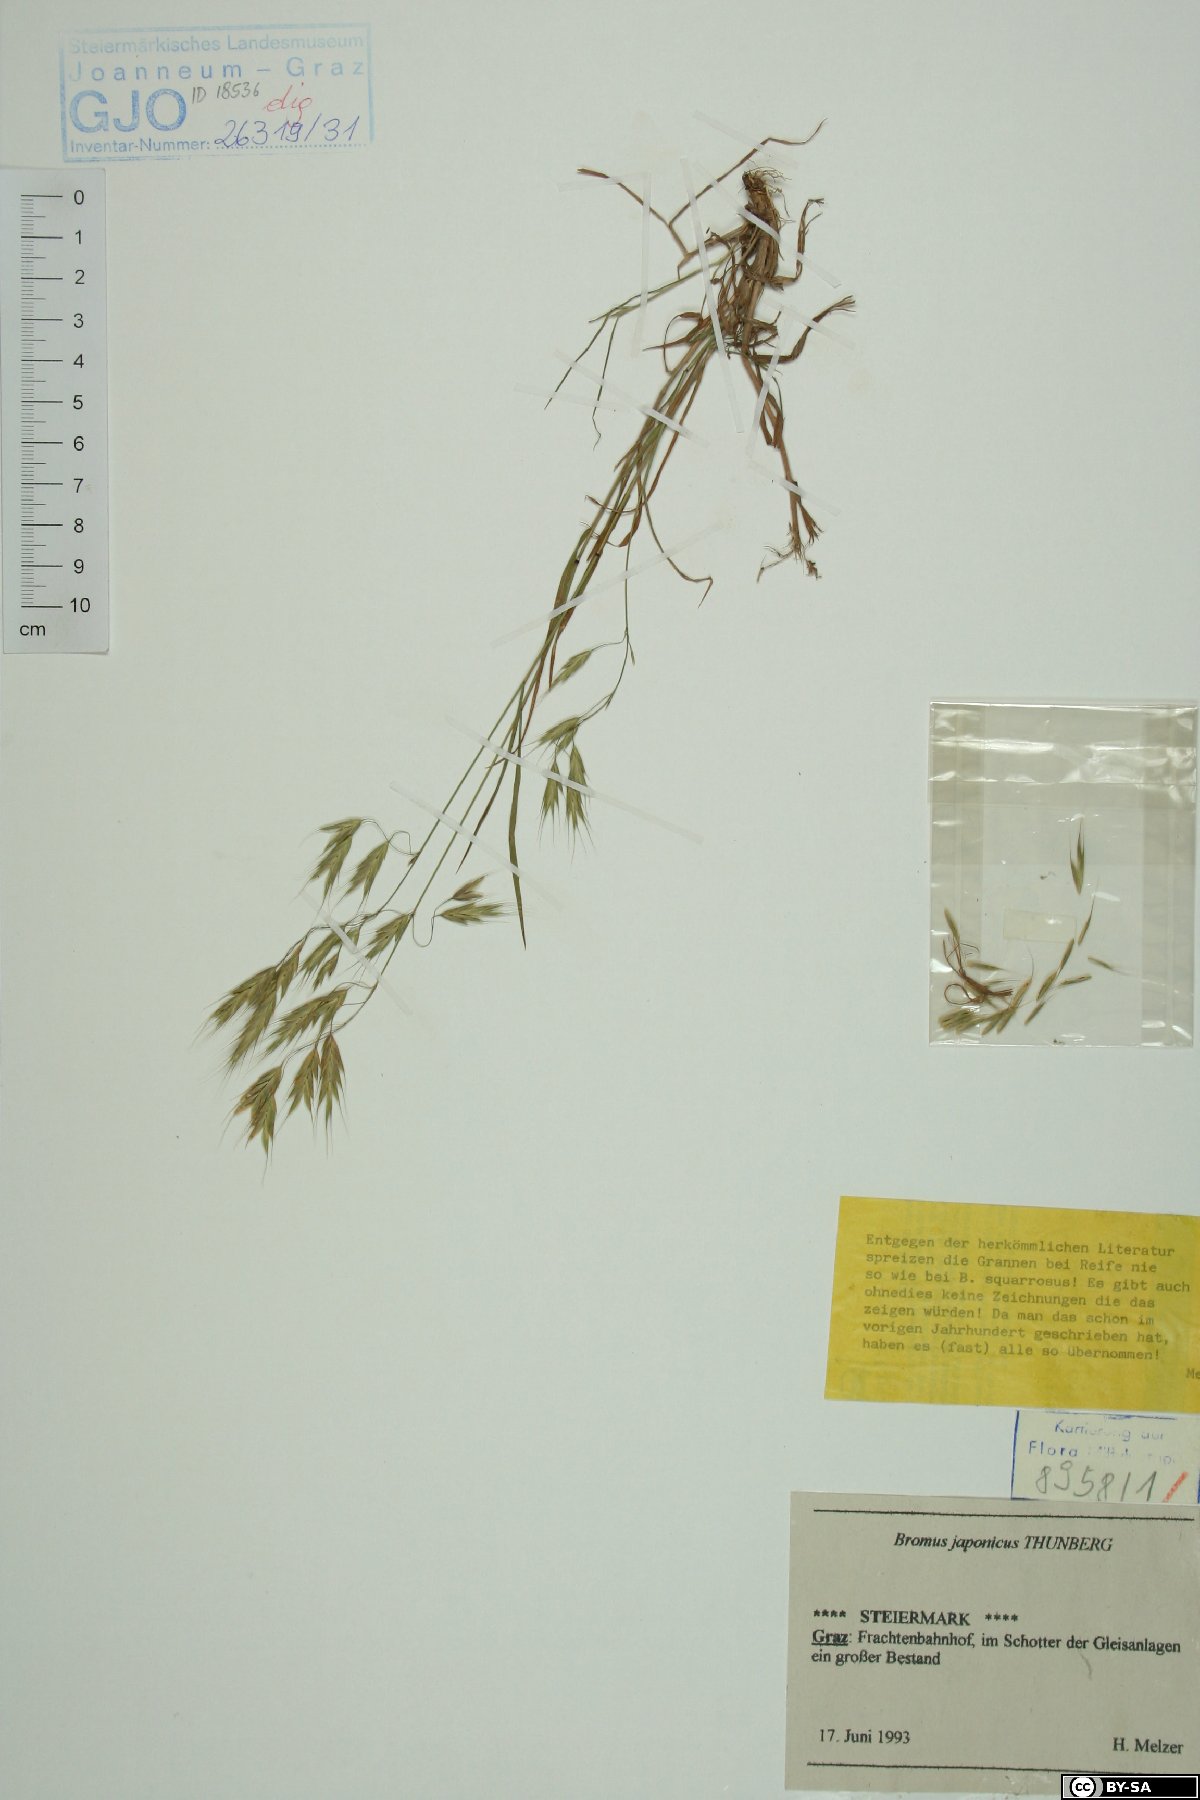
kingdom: Plantae
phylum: Tracheophyta
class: Liliopsida
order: Poales
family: Poaceae
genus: Bromus
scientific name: Bromus japonicus
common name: Japanese brome
